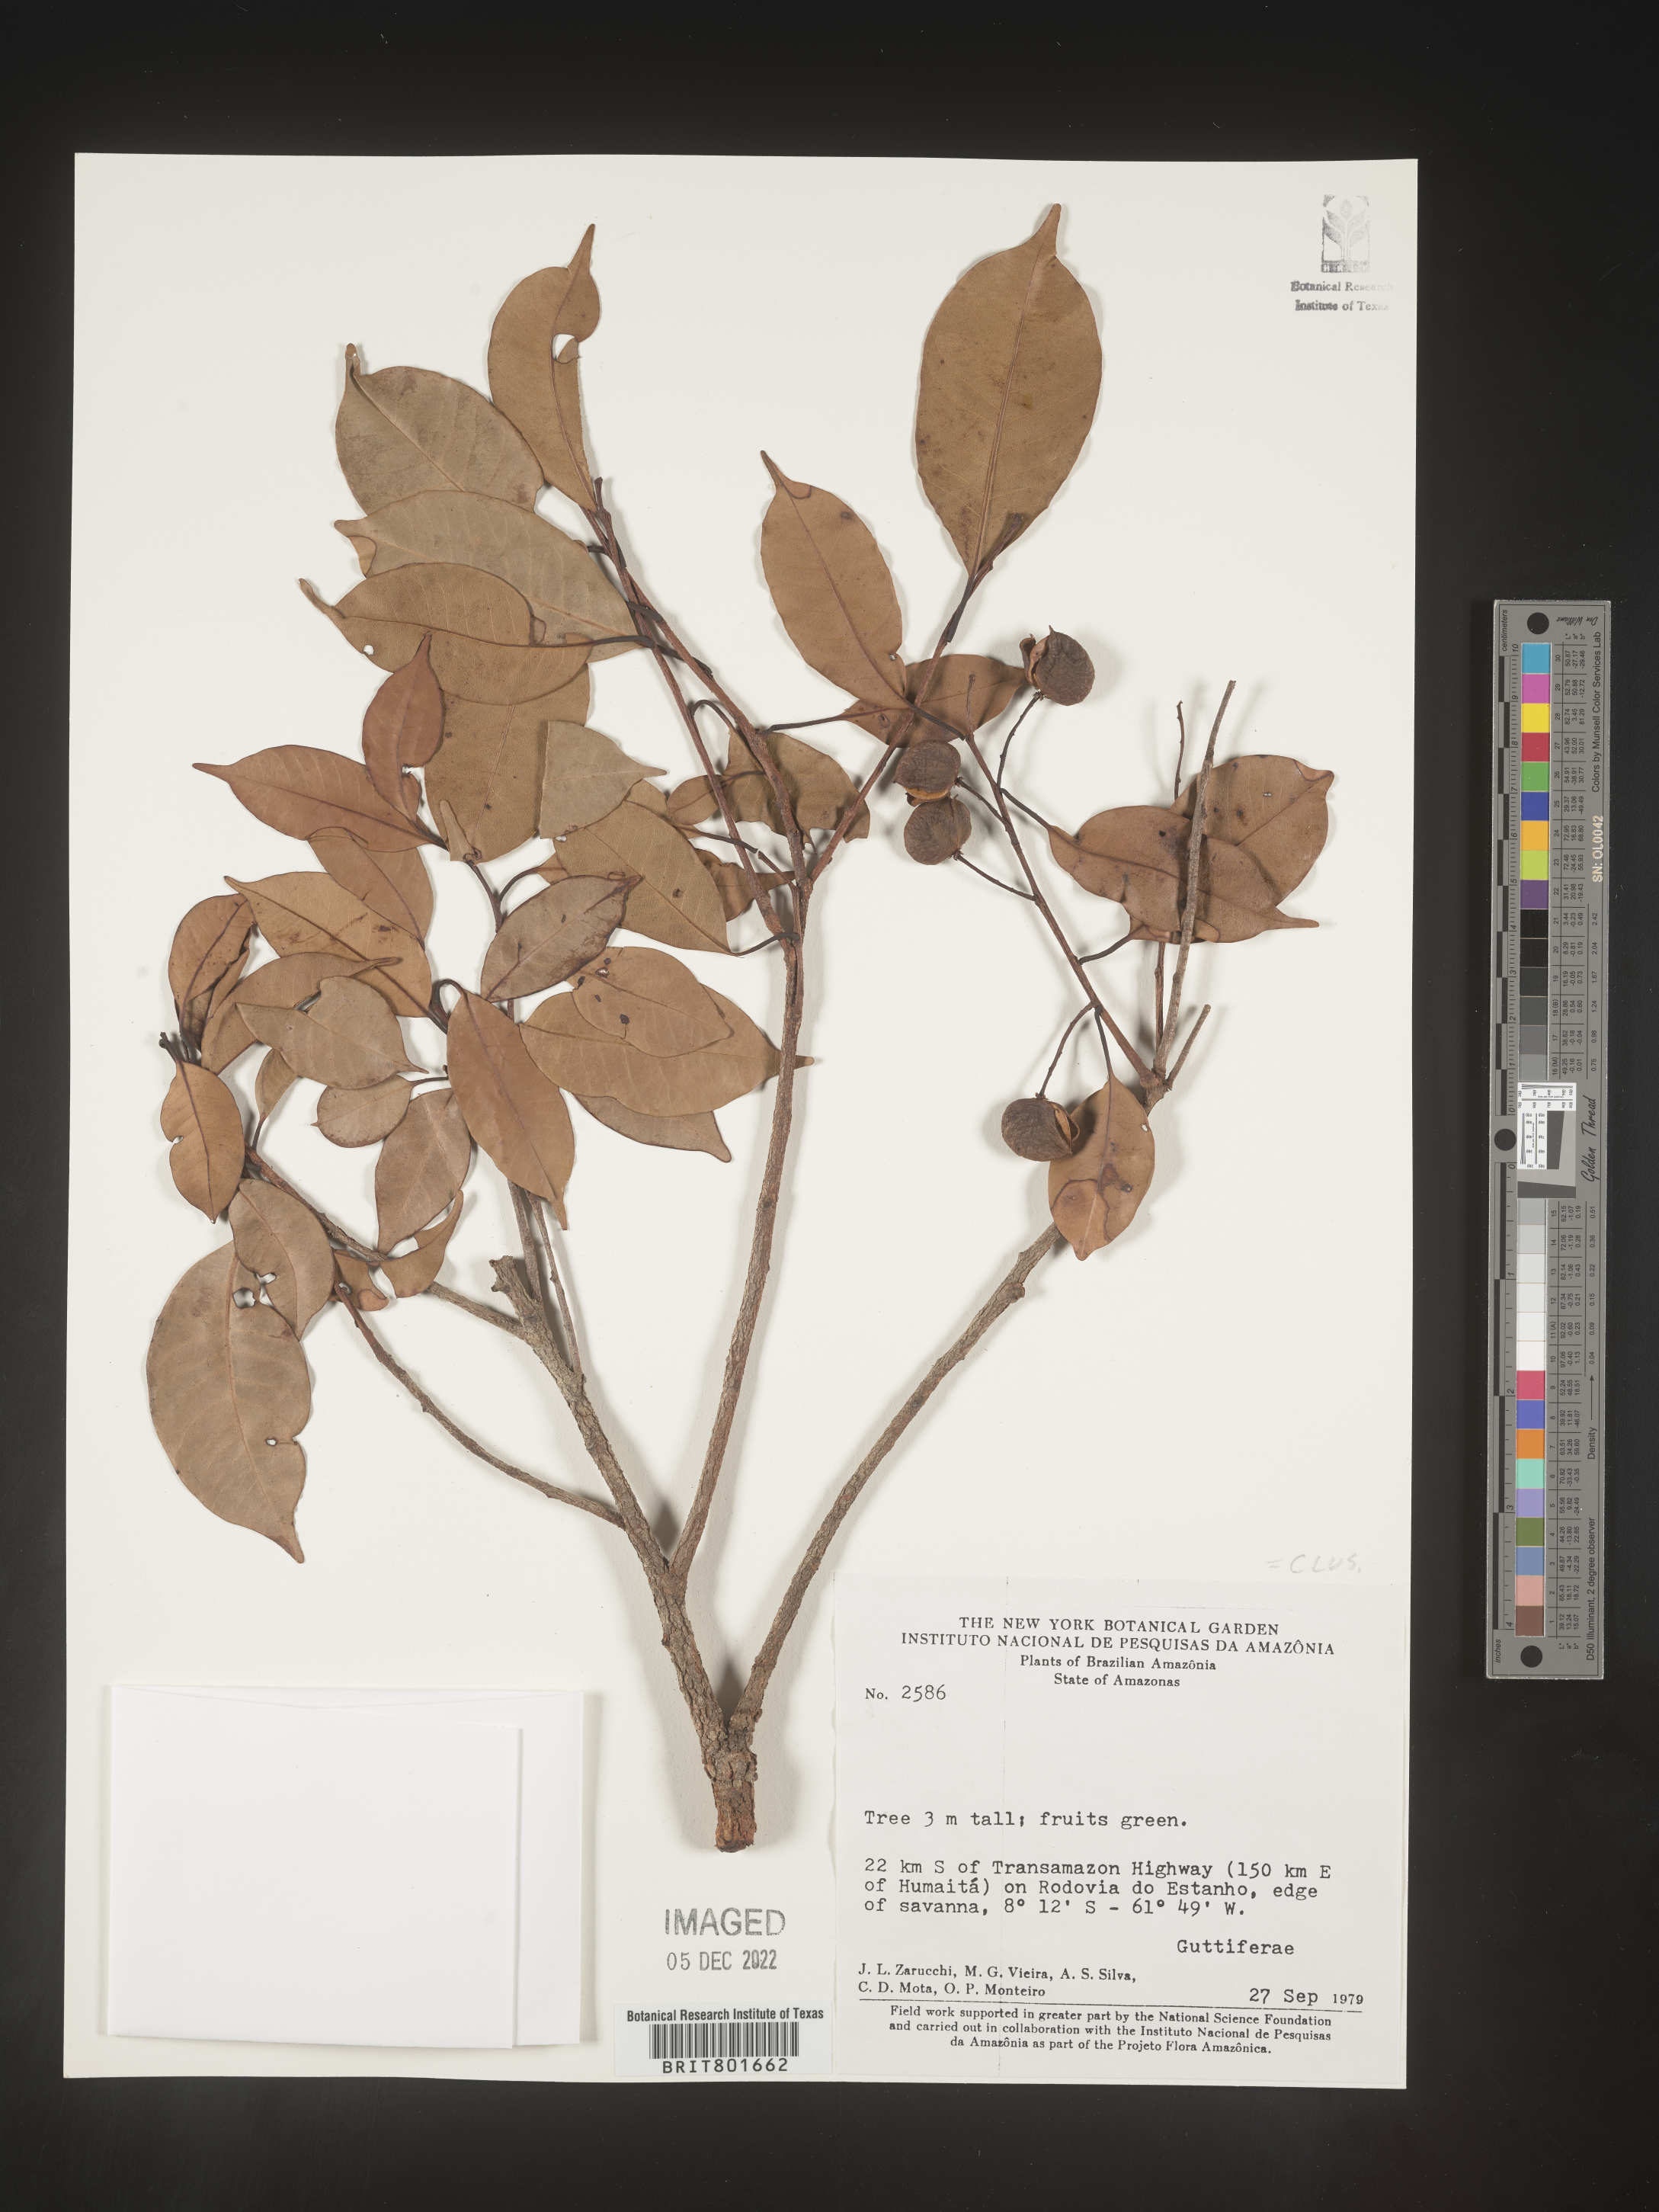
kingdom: Plantae
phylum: Tracheophyta
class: Magnoliopsida
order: Malpighiales
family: Clusiaceae
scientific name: Clusiaceae
